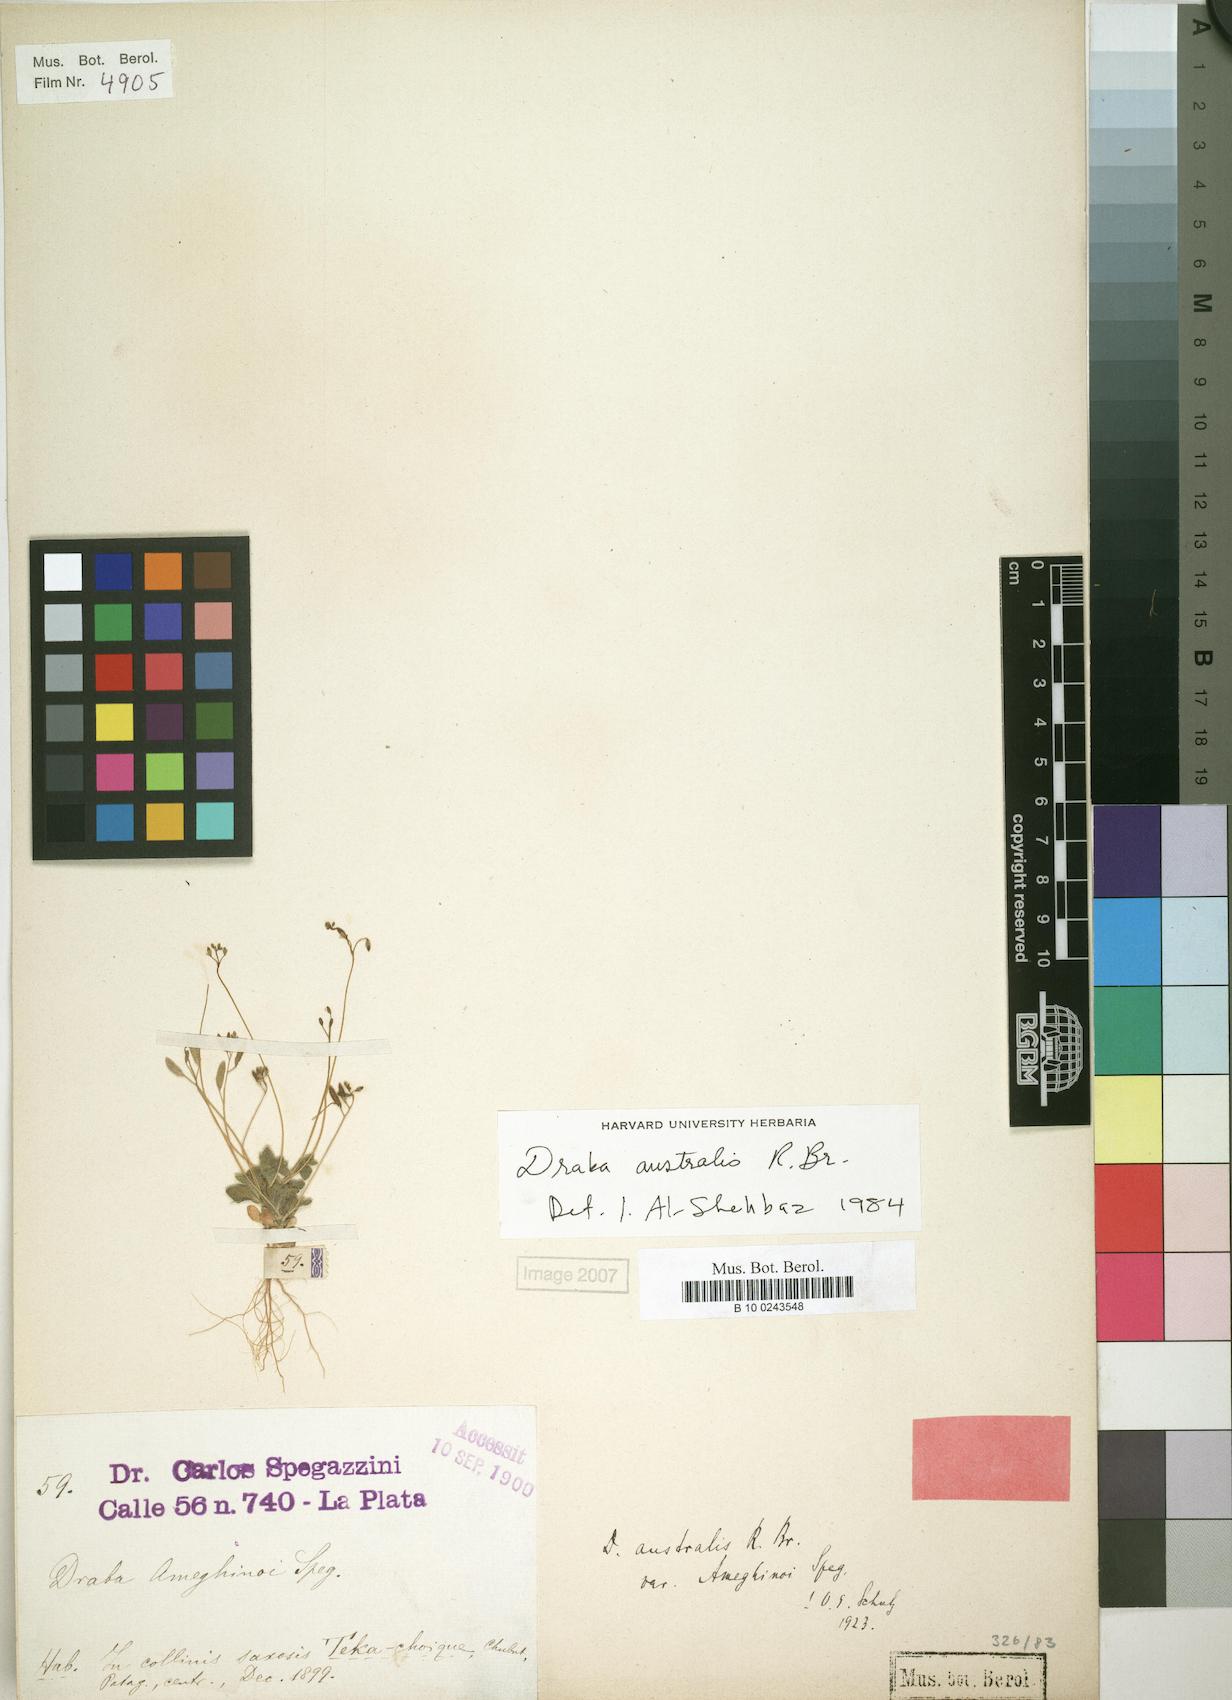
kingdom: Plantae
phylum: Tracheophyta
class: Magnoliopsida
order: Brassicales
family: Brassicaceae
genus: Tomostima
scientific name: Tomostima australis
